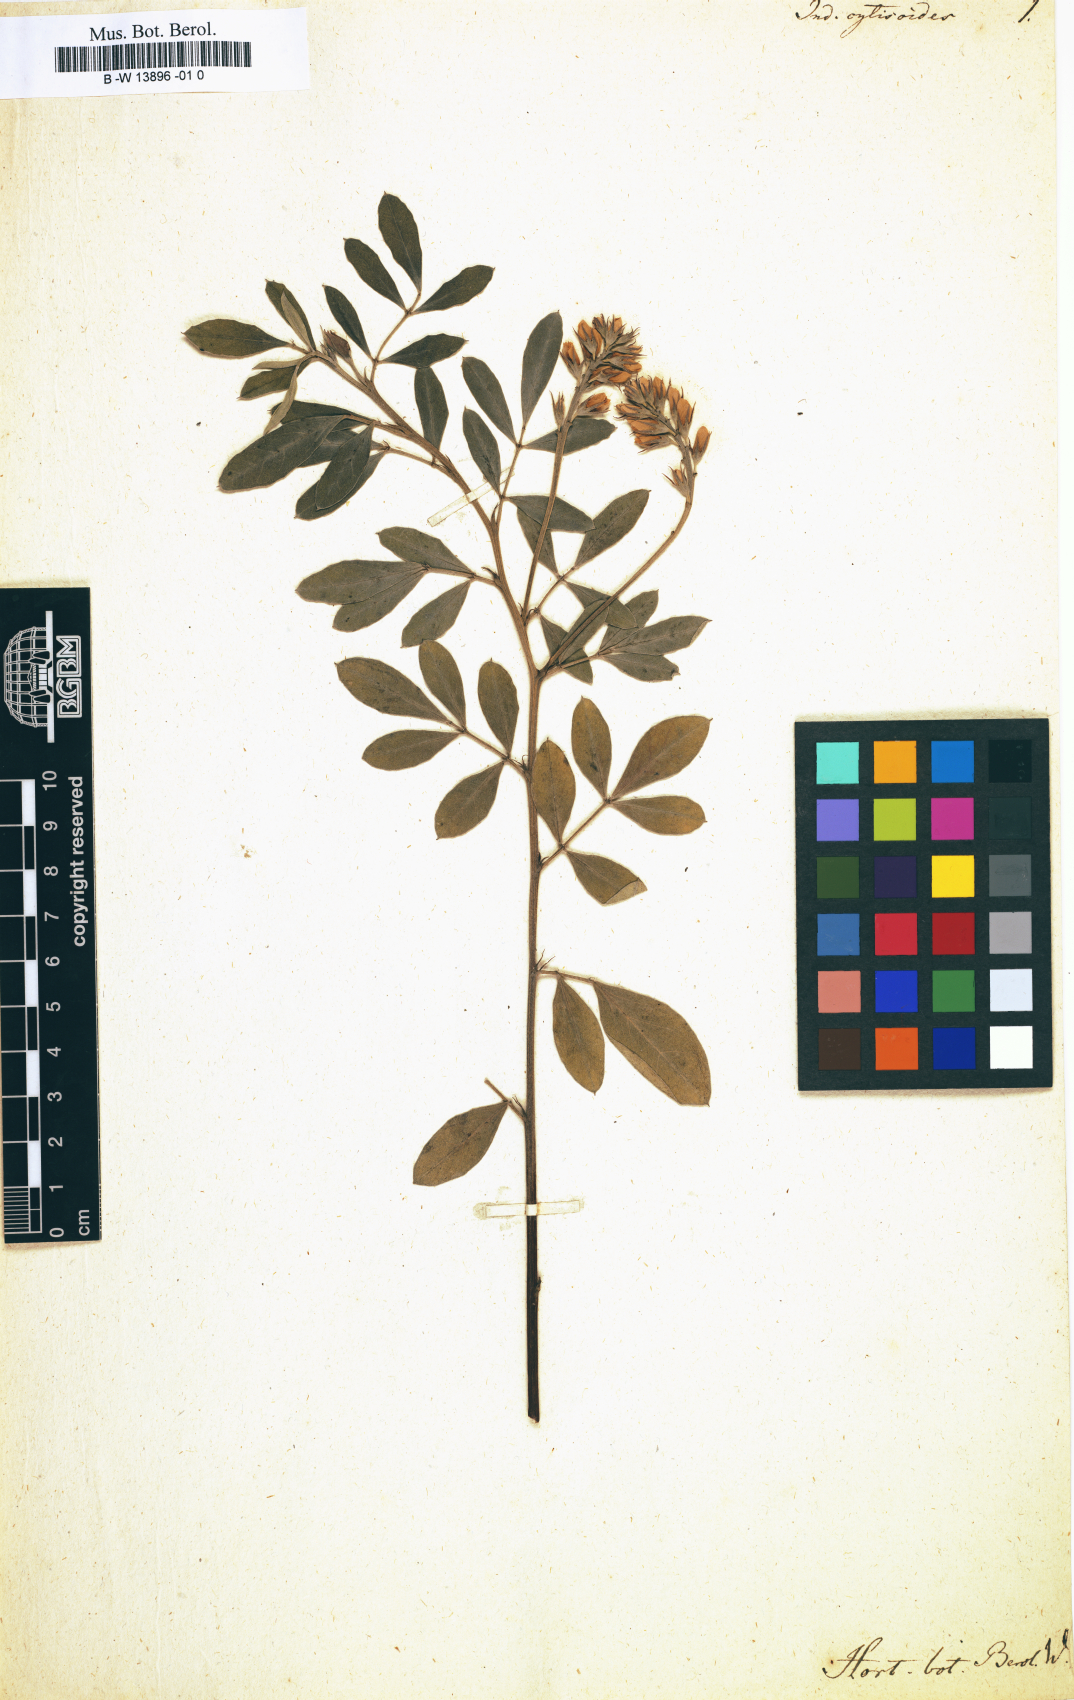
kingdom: Plantae
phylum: Tracheophyta
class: Magnoliopsida
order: Fabales
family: Fabaceae
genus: Indigofera
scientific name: Indigofera cytisoides
